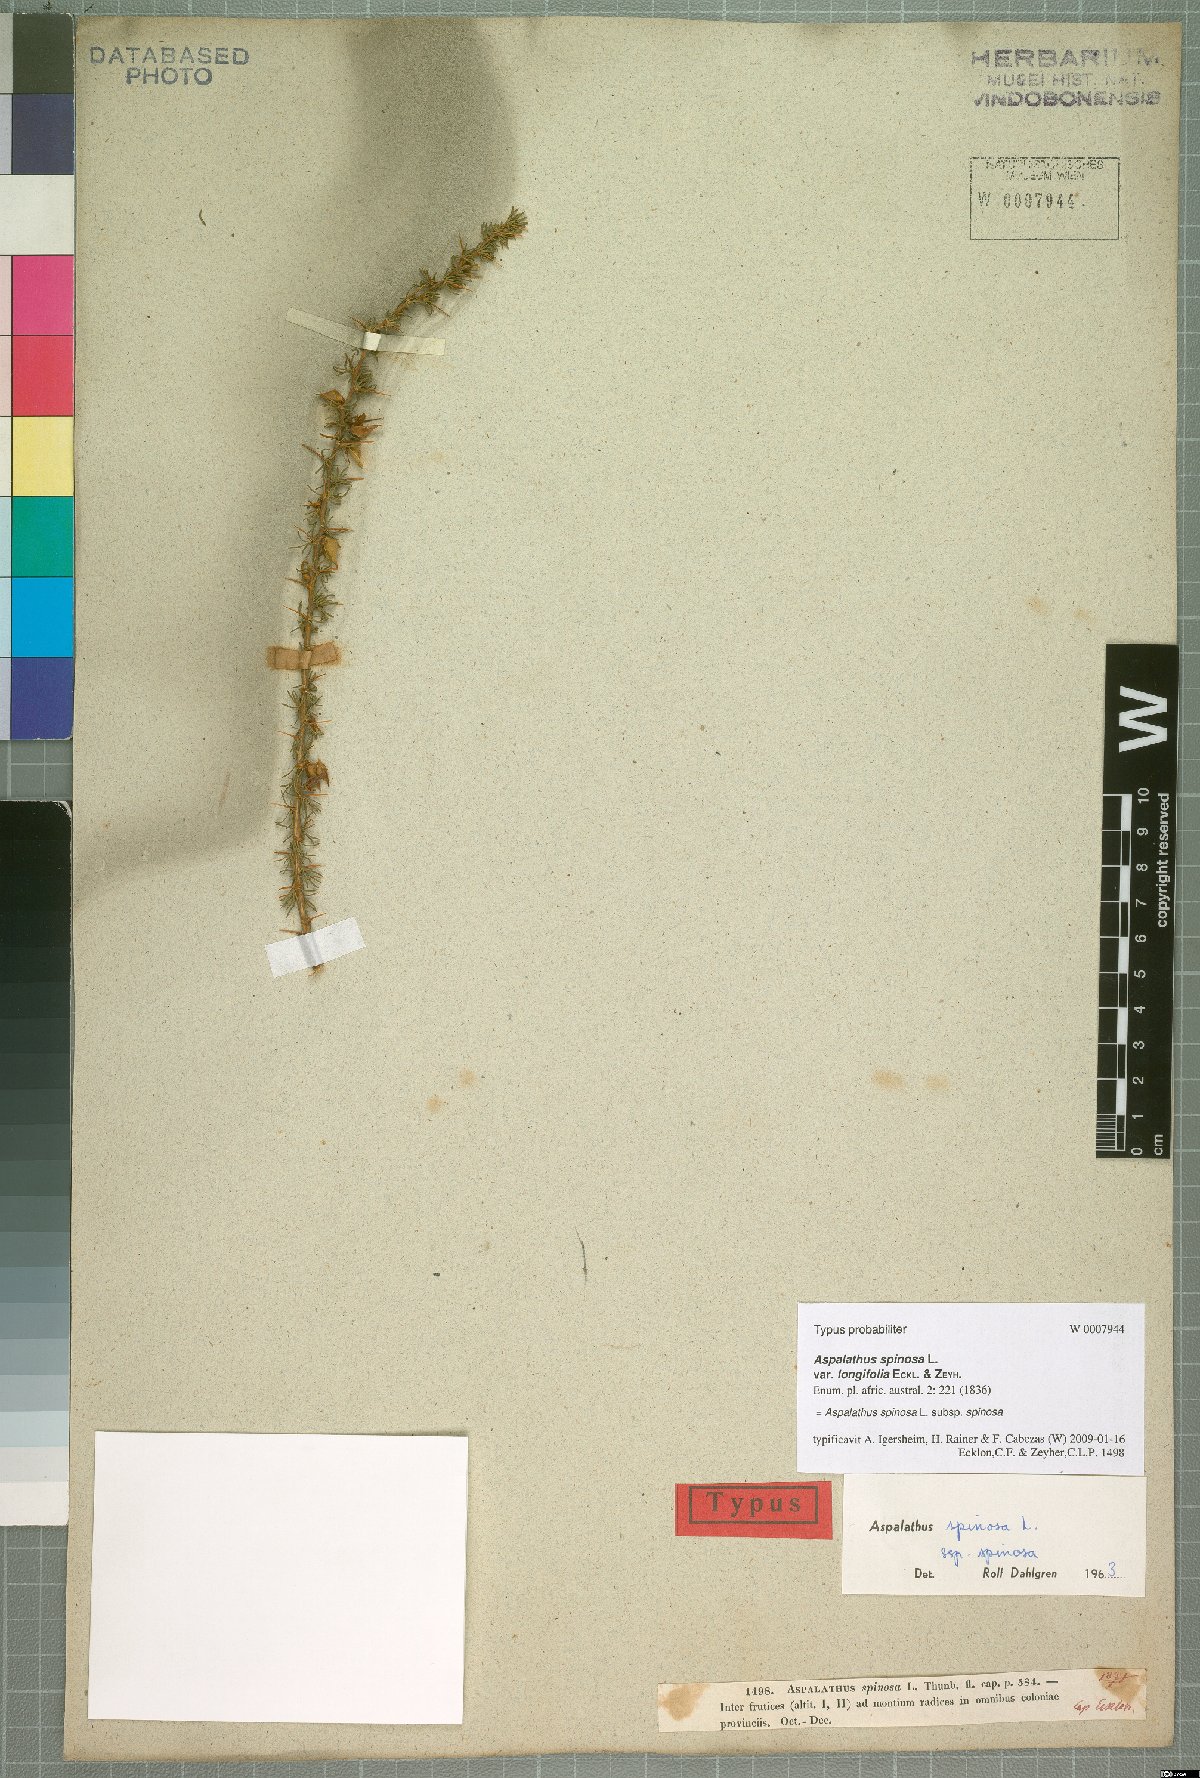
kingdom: Plantae
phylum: Tracheophyta
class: Magnoliopsida
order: Fabales
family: Fabaceae
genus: Aspalathus
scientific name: Aspalathus spinosa
